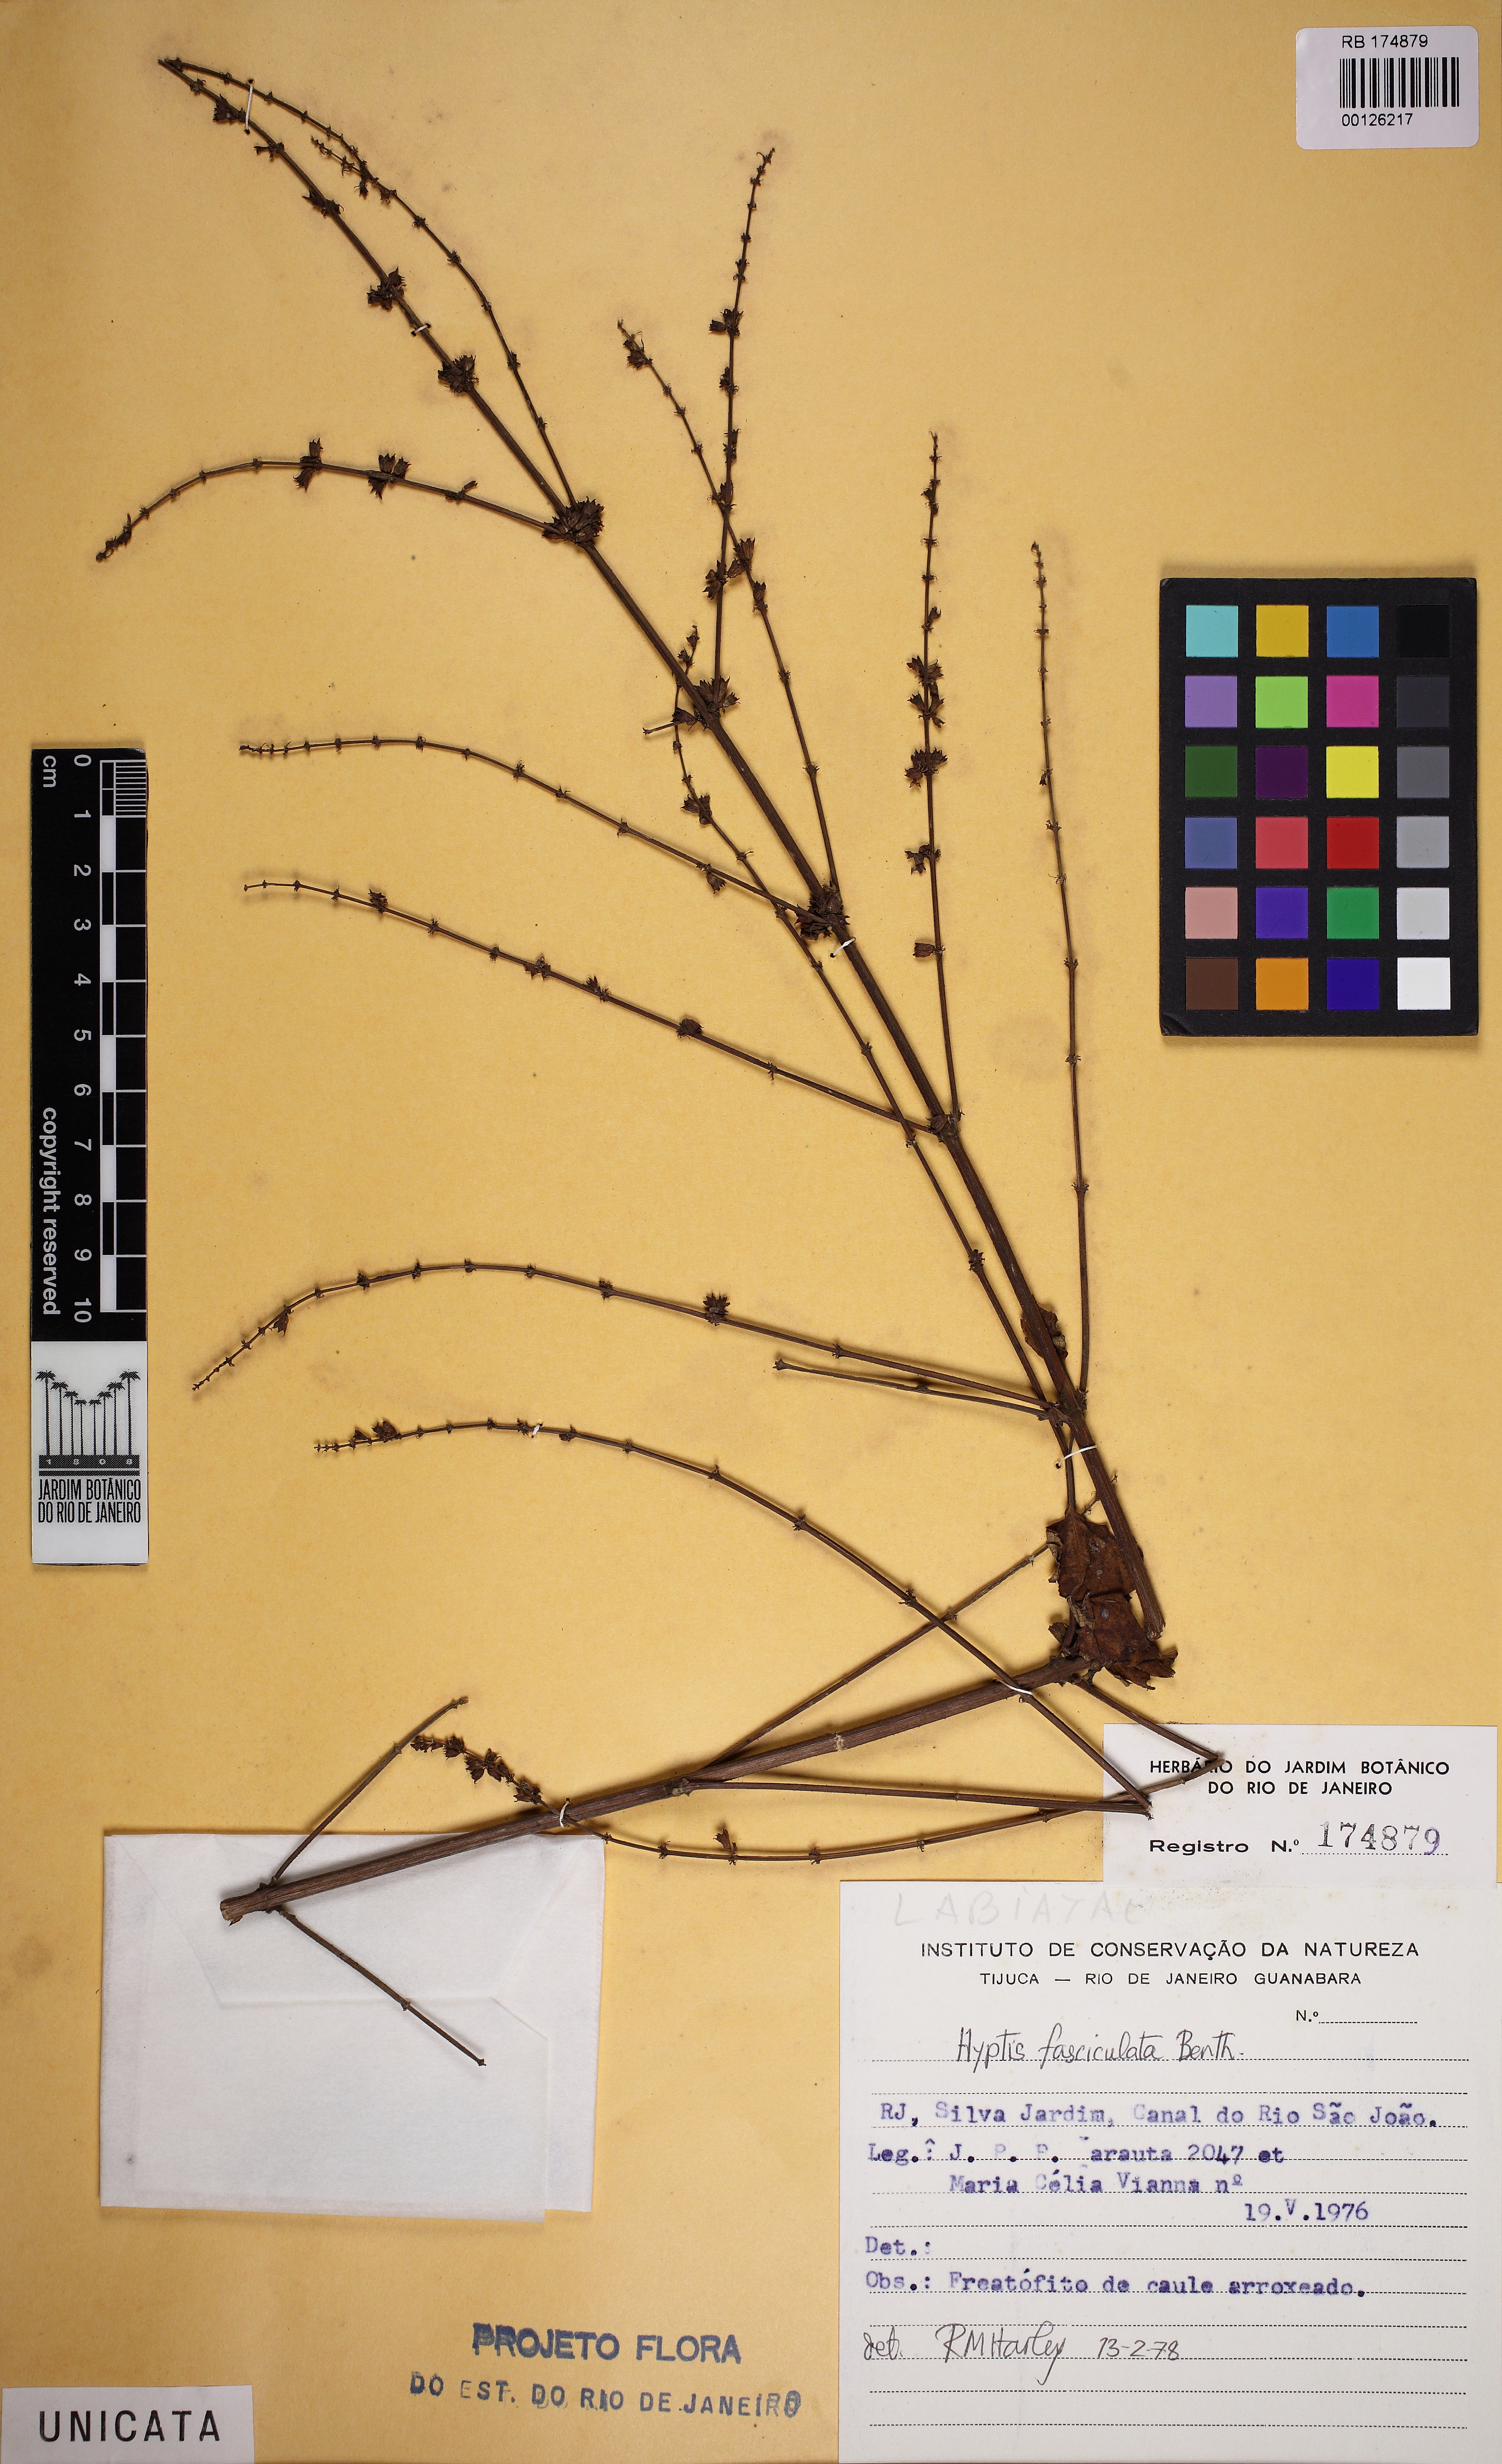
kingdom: Plantae
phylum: Tracheophyta
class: Magnoliopsida
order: Lamiales
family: Lamiaceae
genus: Condea
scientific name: Condea undulata
